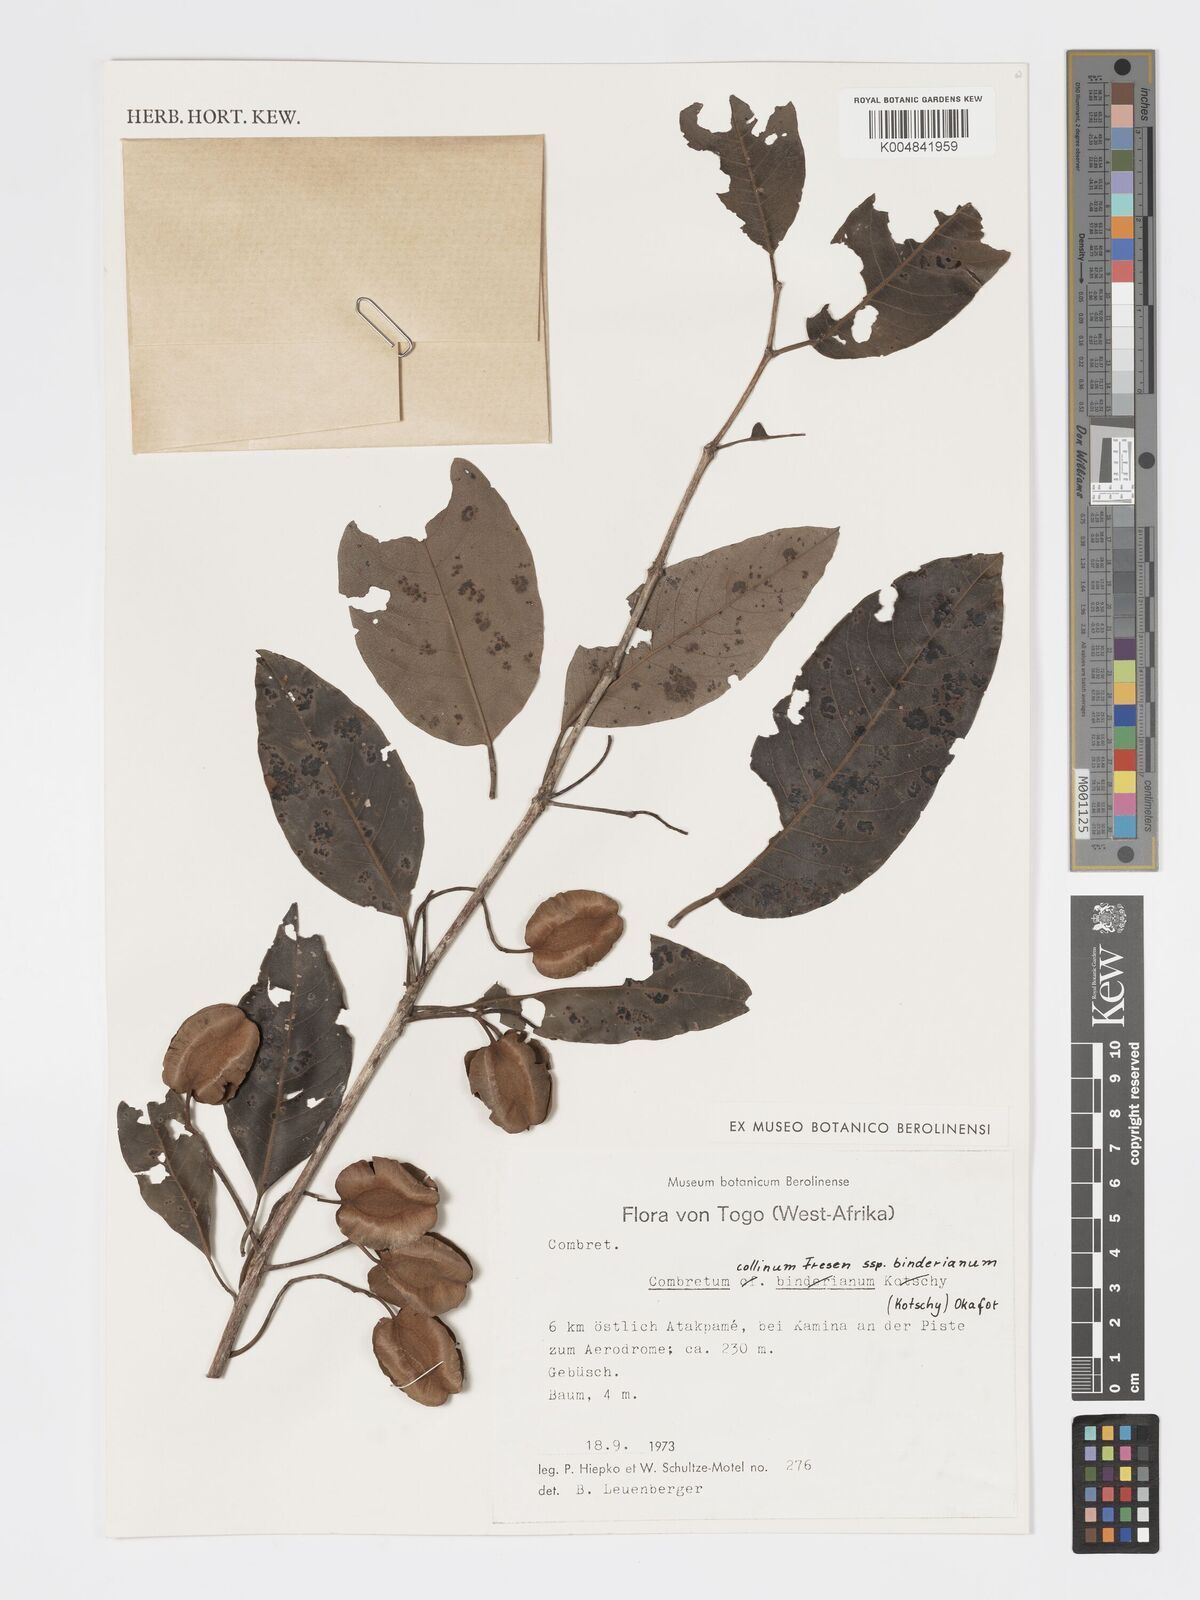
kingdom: Plantae
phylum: Tracheophyta
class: Magnoliopsida
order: Myrtales
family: Combretaceae
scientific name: Combretaceae
